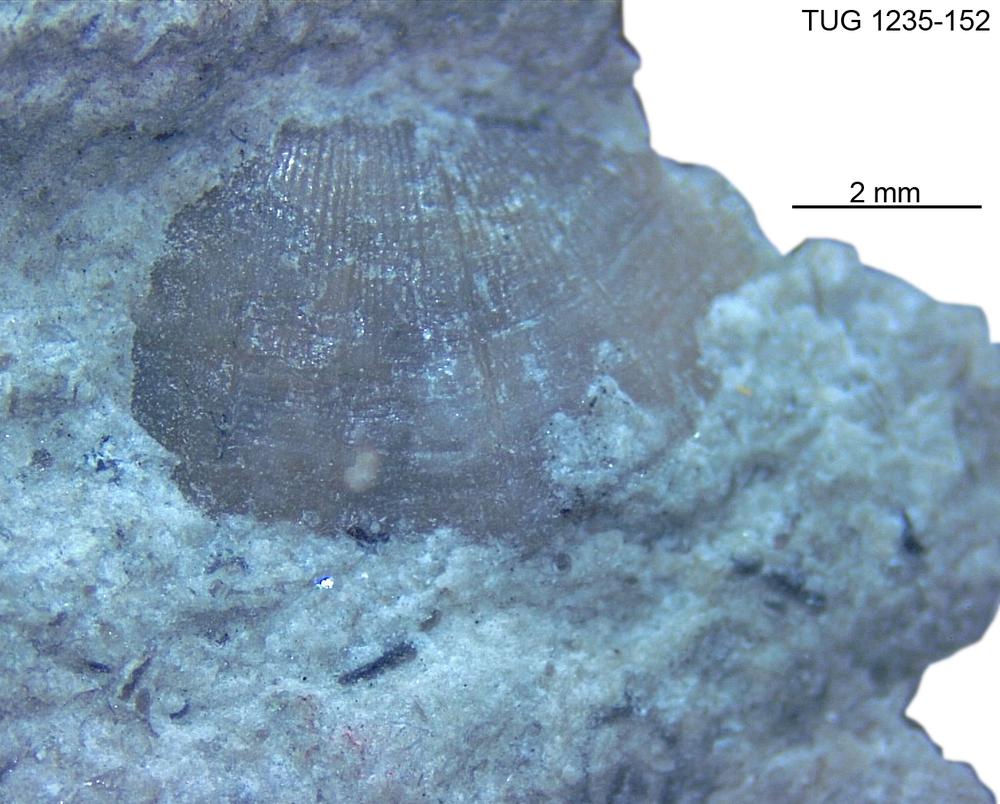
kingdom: Animalia
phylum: Brachiopoda
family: Oldhaminidae
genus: Eoplectodonta
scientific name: Eoplectodonta
